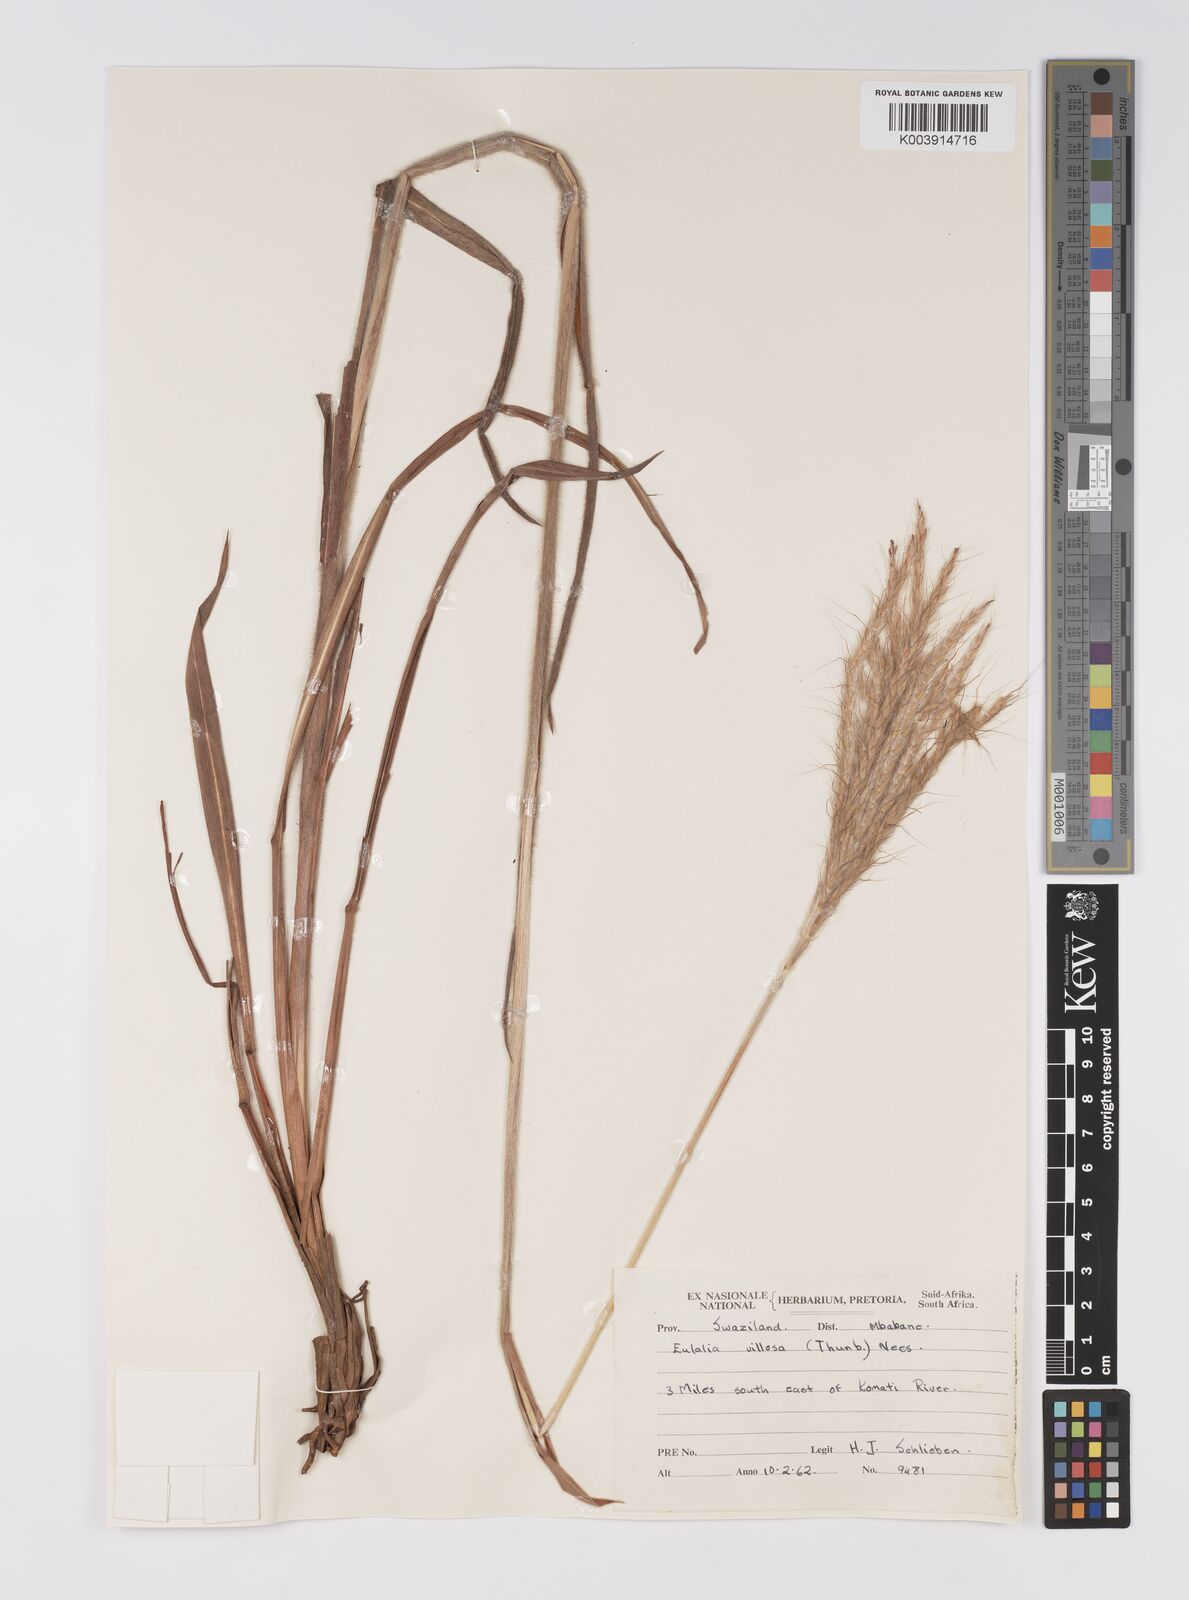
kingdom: Plantae
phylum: Tracheophyta
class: Liliopsida
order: Poales
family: Poaceae
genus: Eulalia
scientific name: Eulalia villosa
